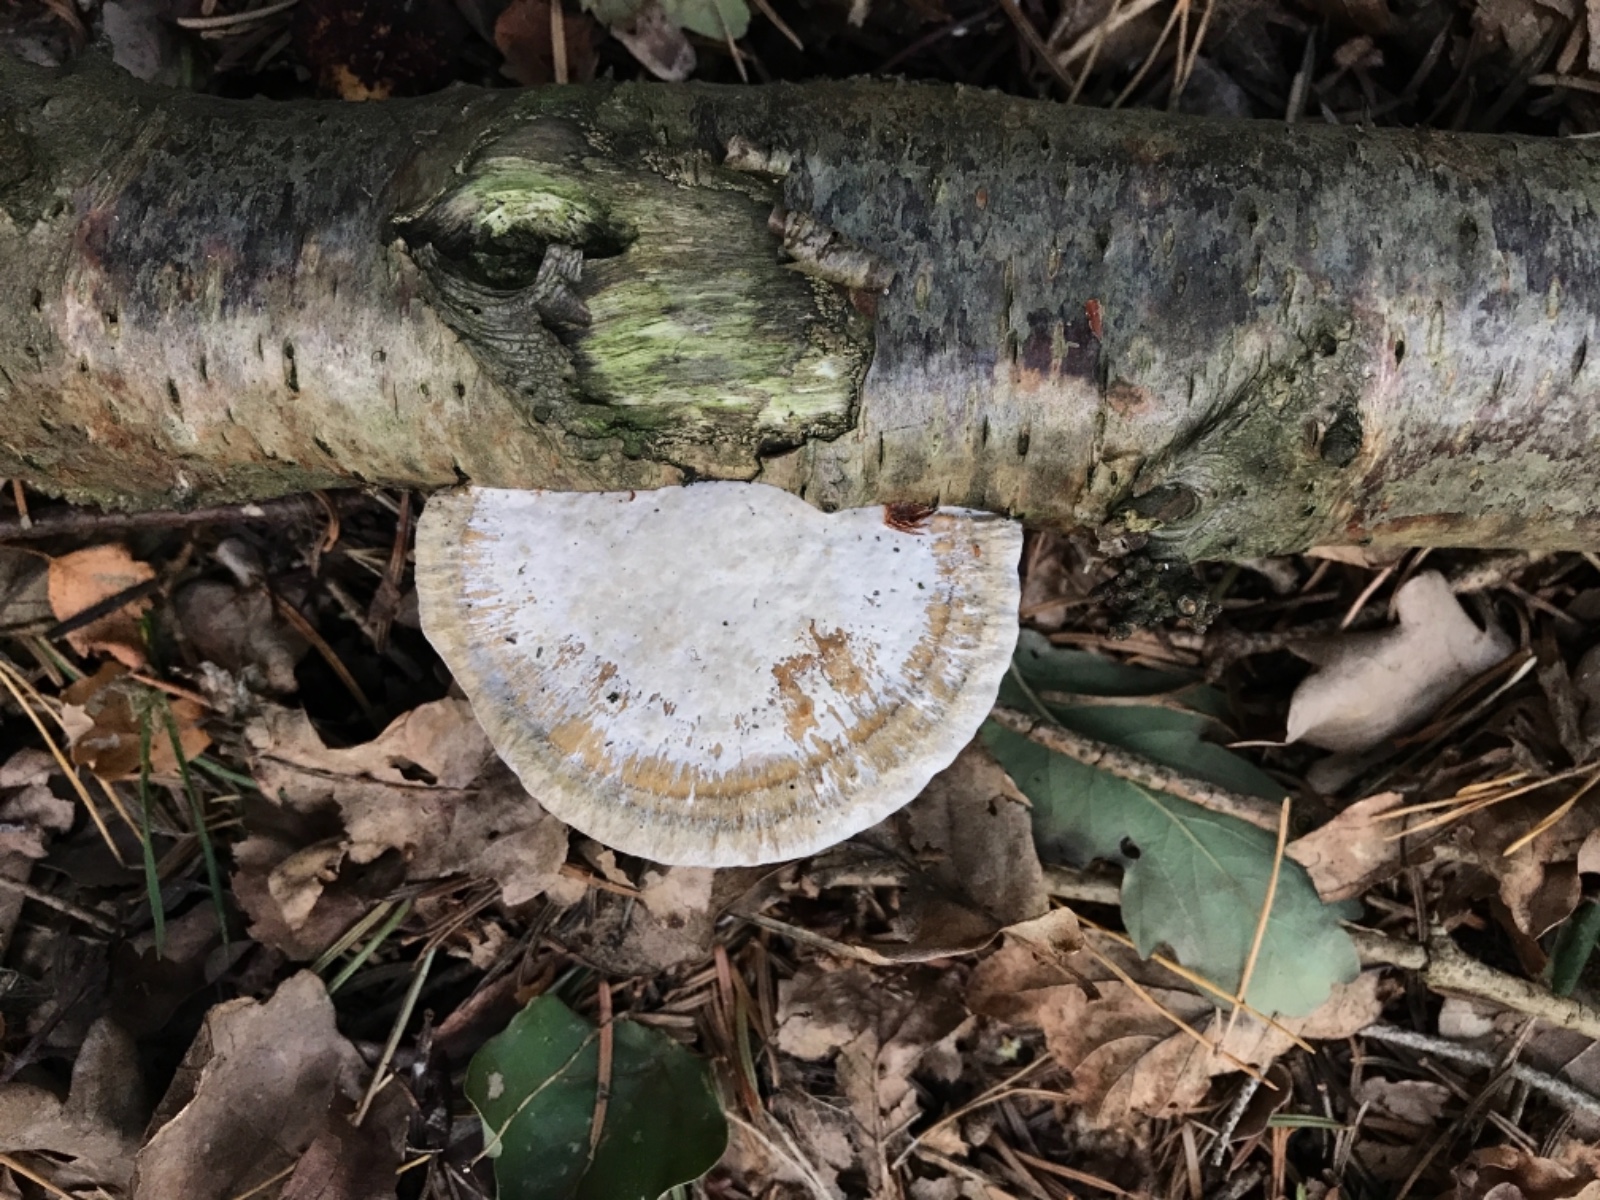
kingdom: Fungi
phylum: Basidiomycota
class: Agaricomycetes
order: Polyporales
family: Polyporaceae
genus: Daedaleopsis
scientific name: Daedaleopsis confragosa
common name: rødmende læderporesvamp
